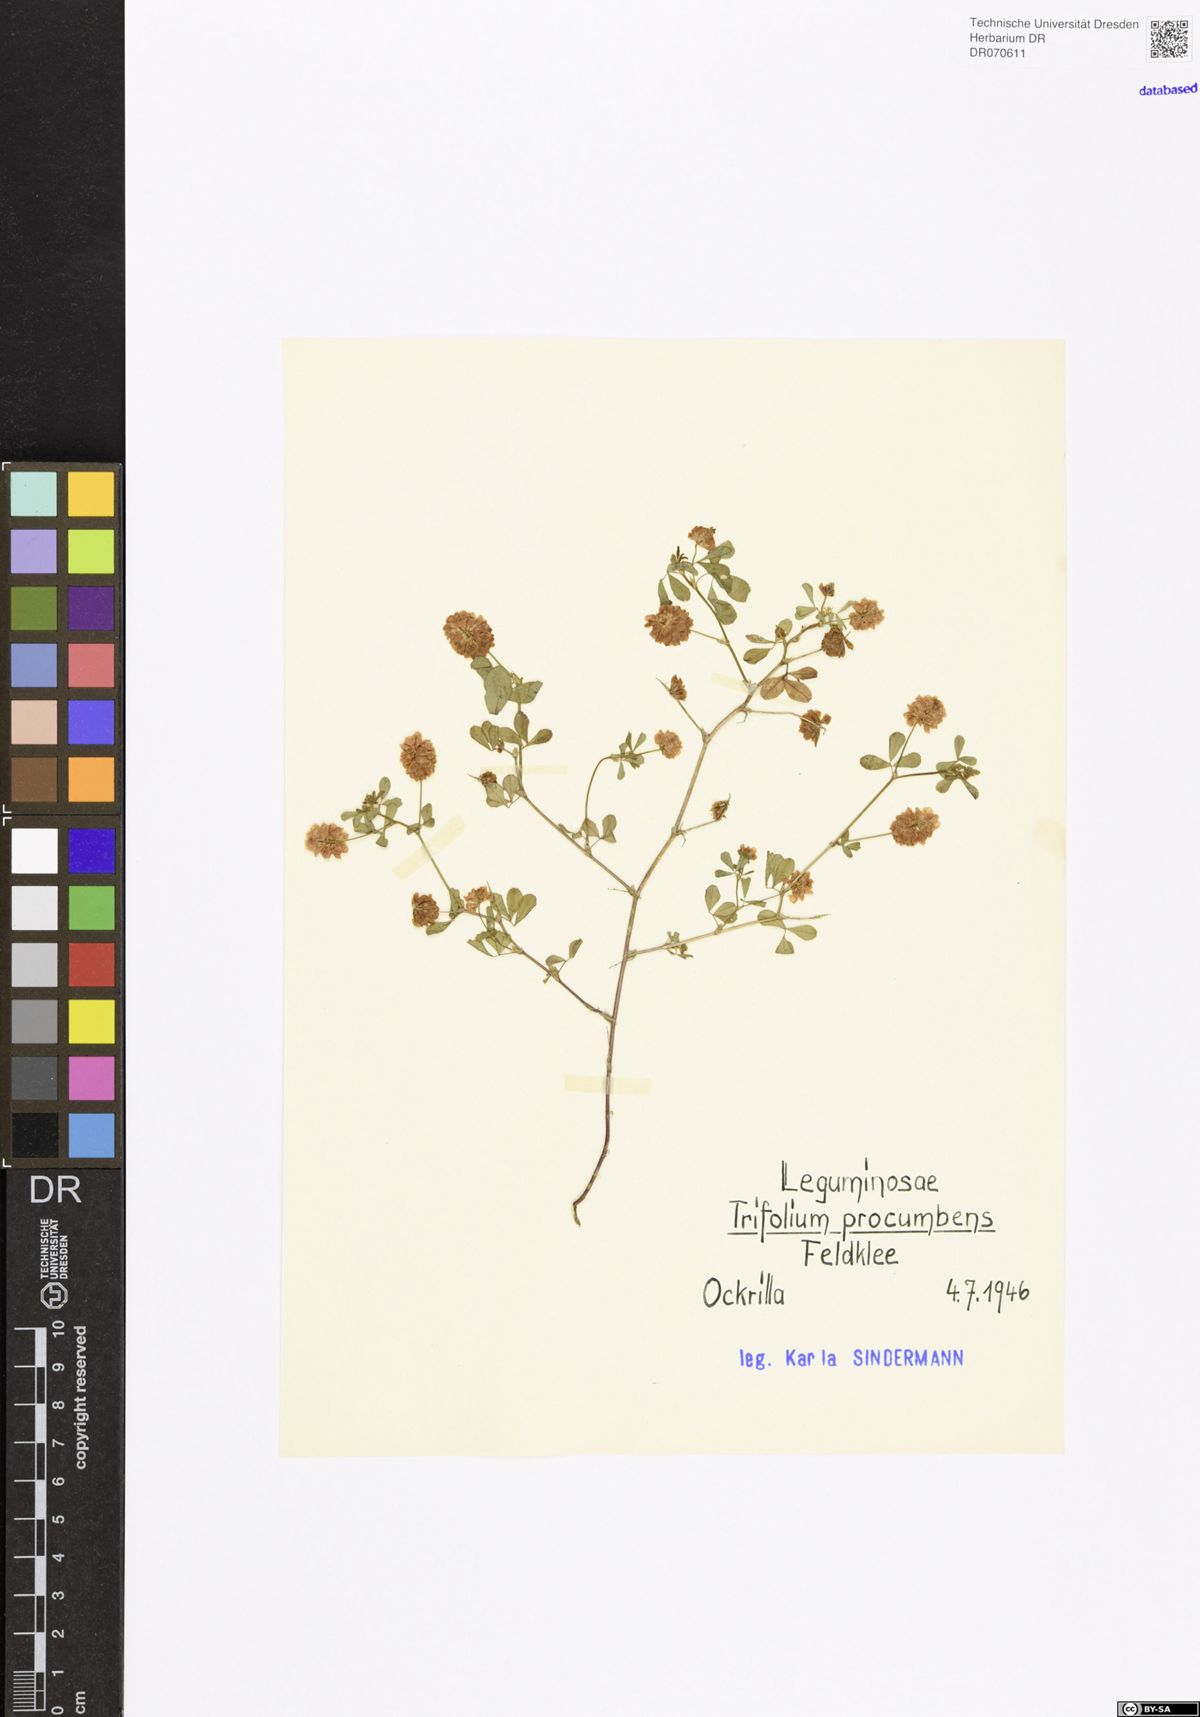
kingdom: Plantae
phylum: Tracheophyta
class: Magnoliopsida
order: Fabales
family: Fabaceae
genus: Trifolium
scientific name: Trifolium campestre
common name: Field clover
